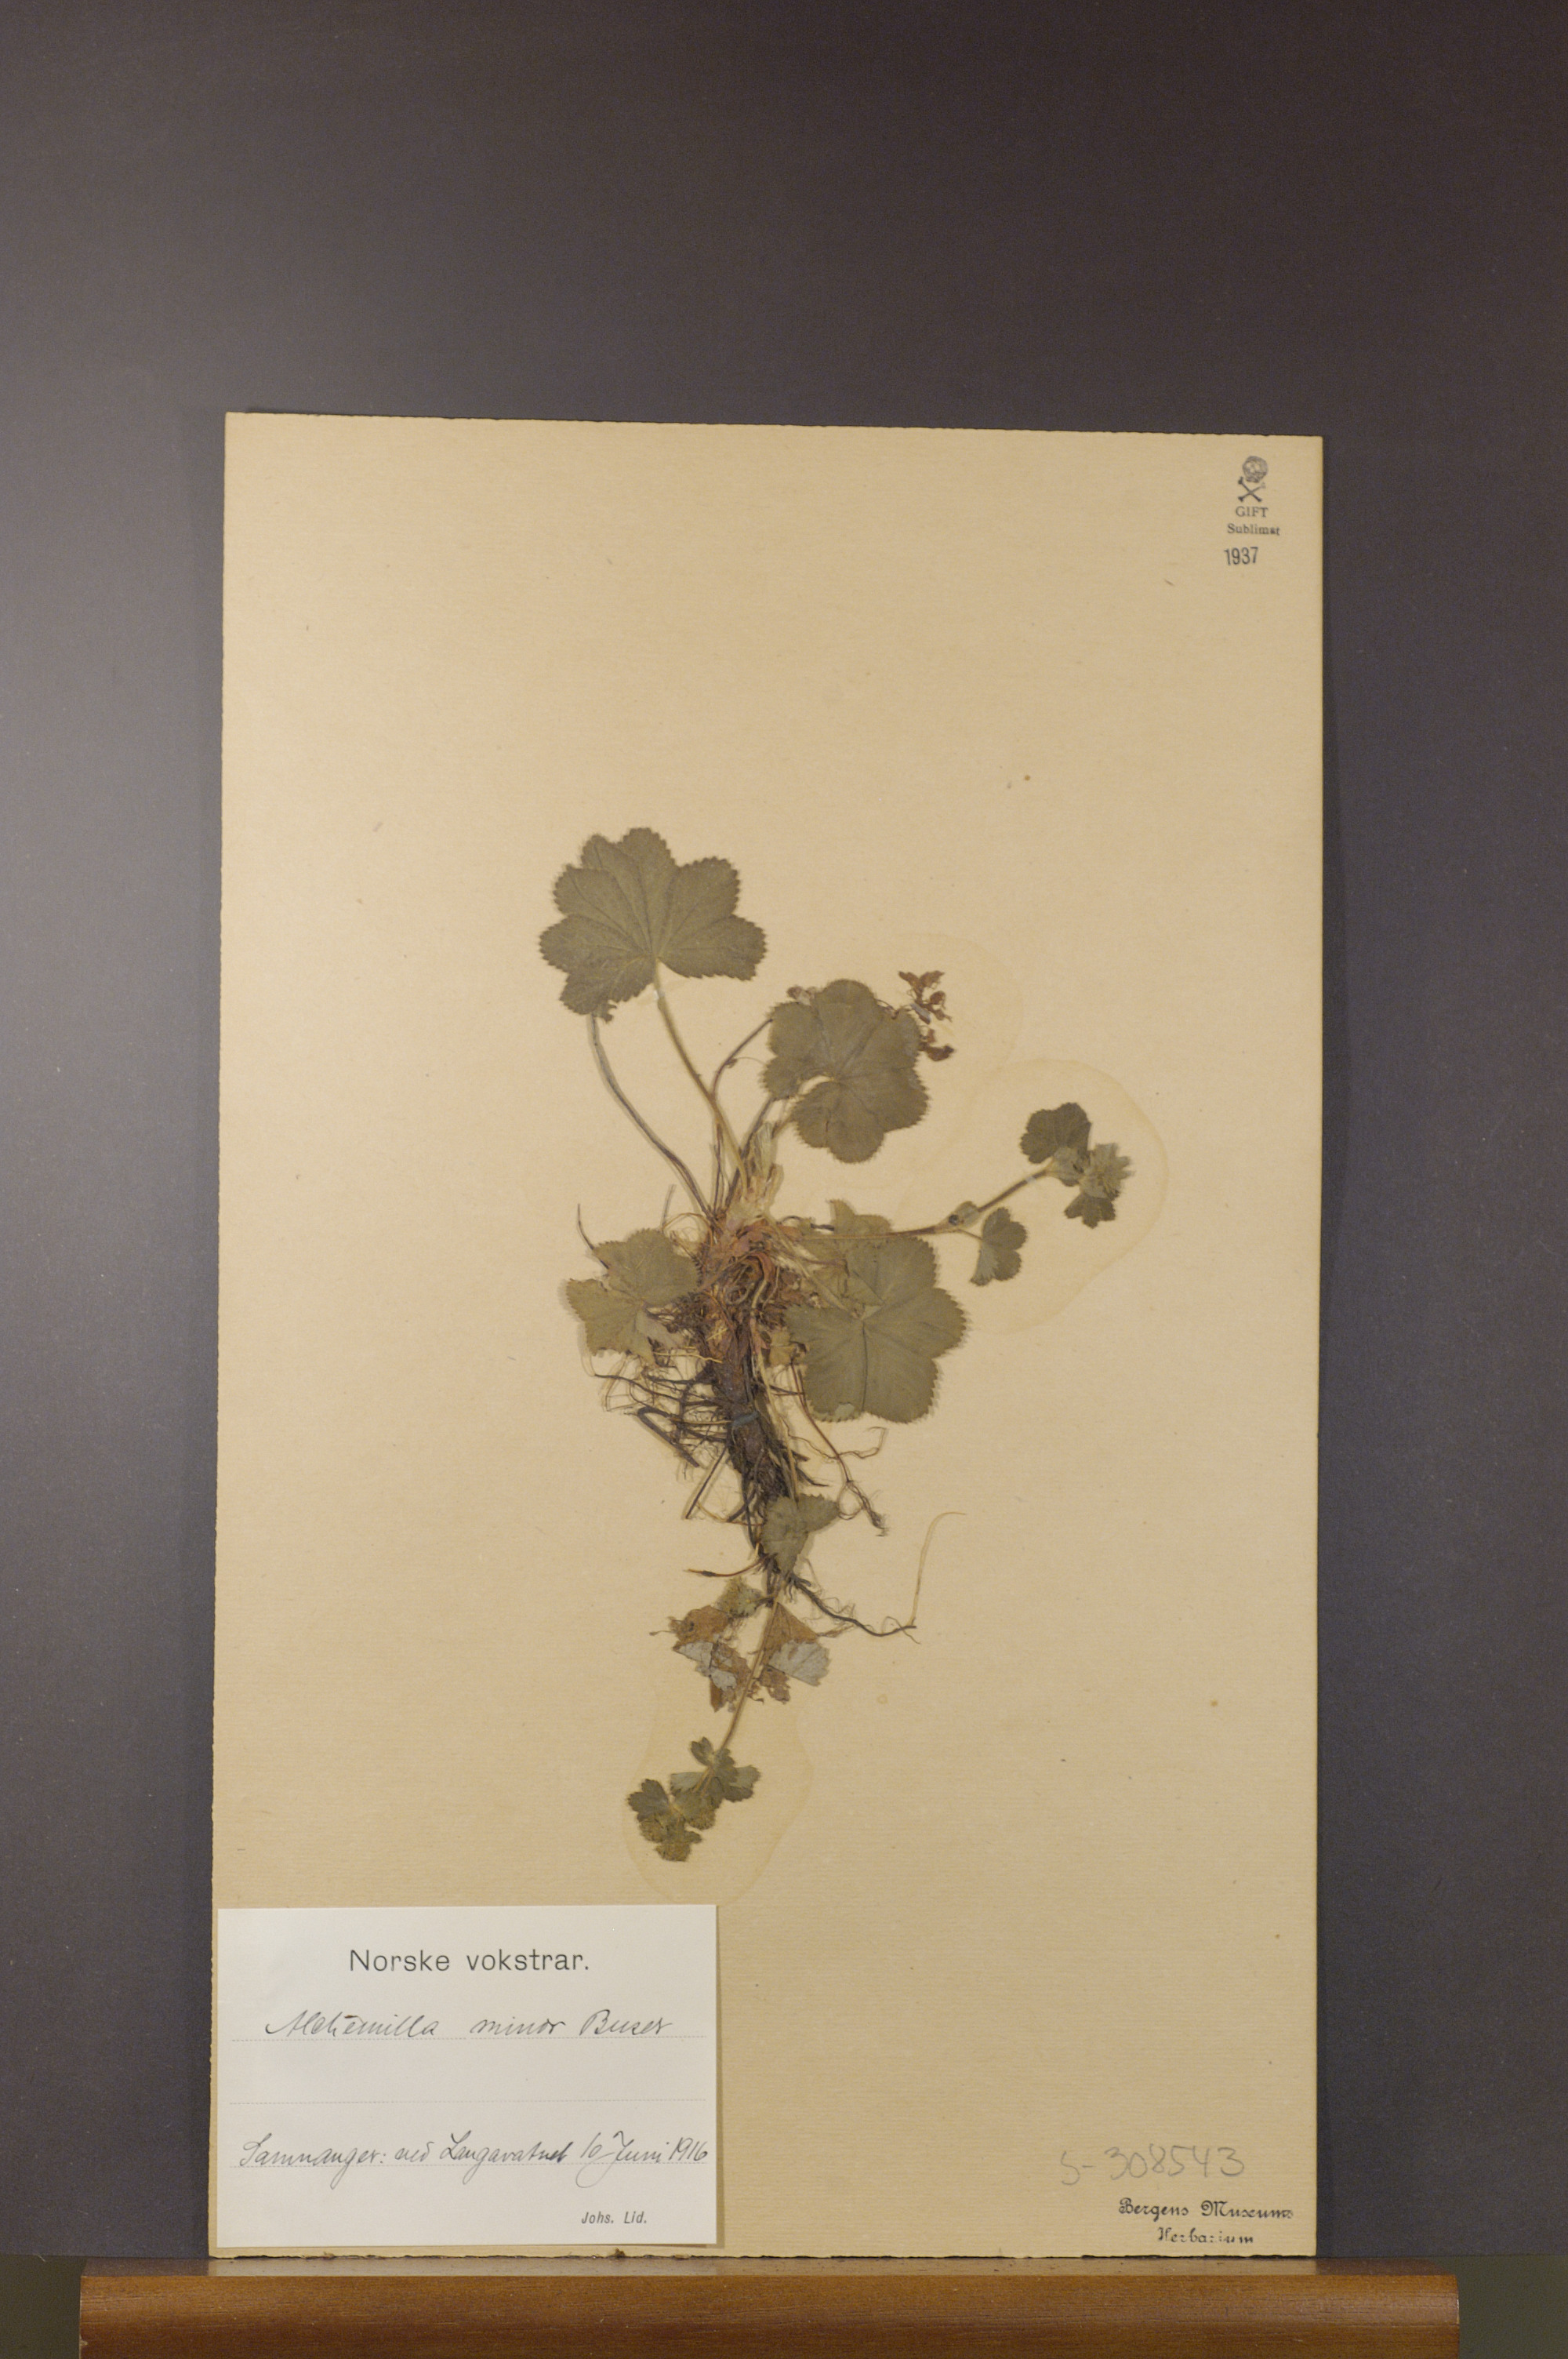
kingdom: Plantae
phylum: Tracheophyta
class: Magnoliopsida
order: Rosales
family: Rosaceae
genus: Alchemilla
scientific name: Alchemilla filicaulis
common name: Hairy lady's-mantle
